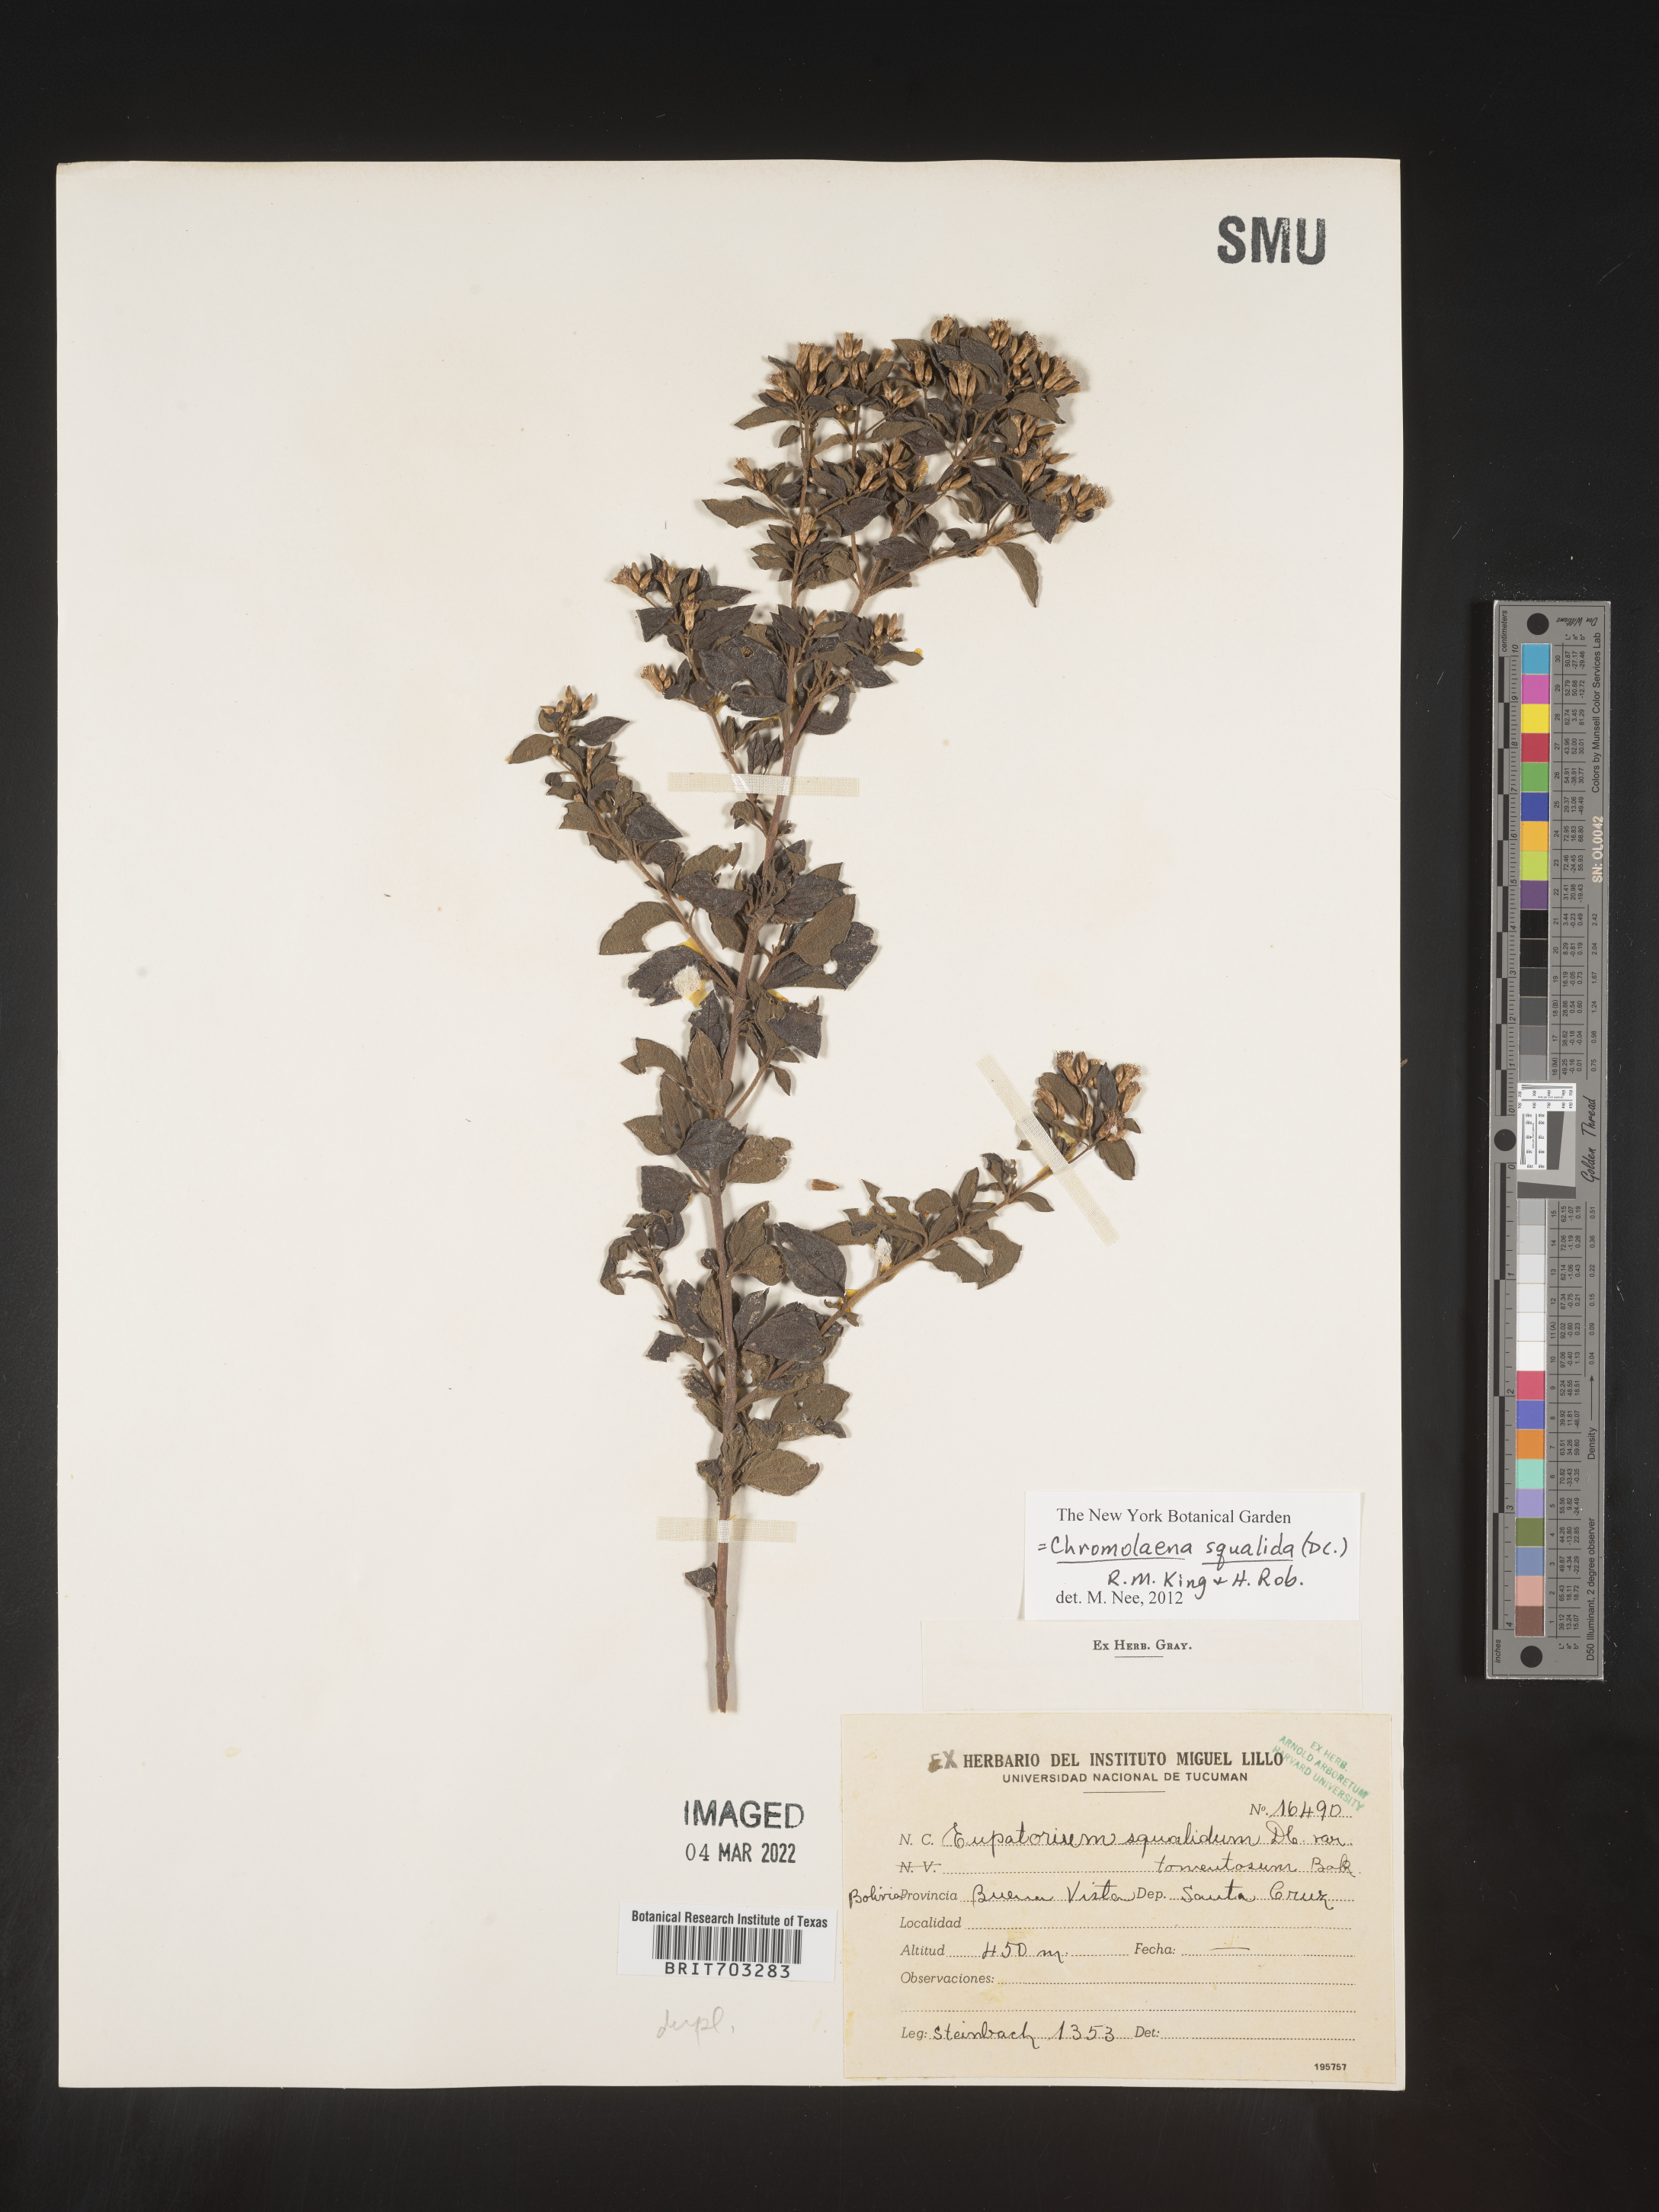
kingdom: Plantae
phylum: Tracheophyta
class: Magnoliopsida
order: Asterales
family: Asteraceae
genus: Eupatorium
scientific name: Eupatorium
